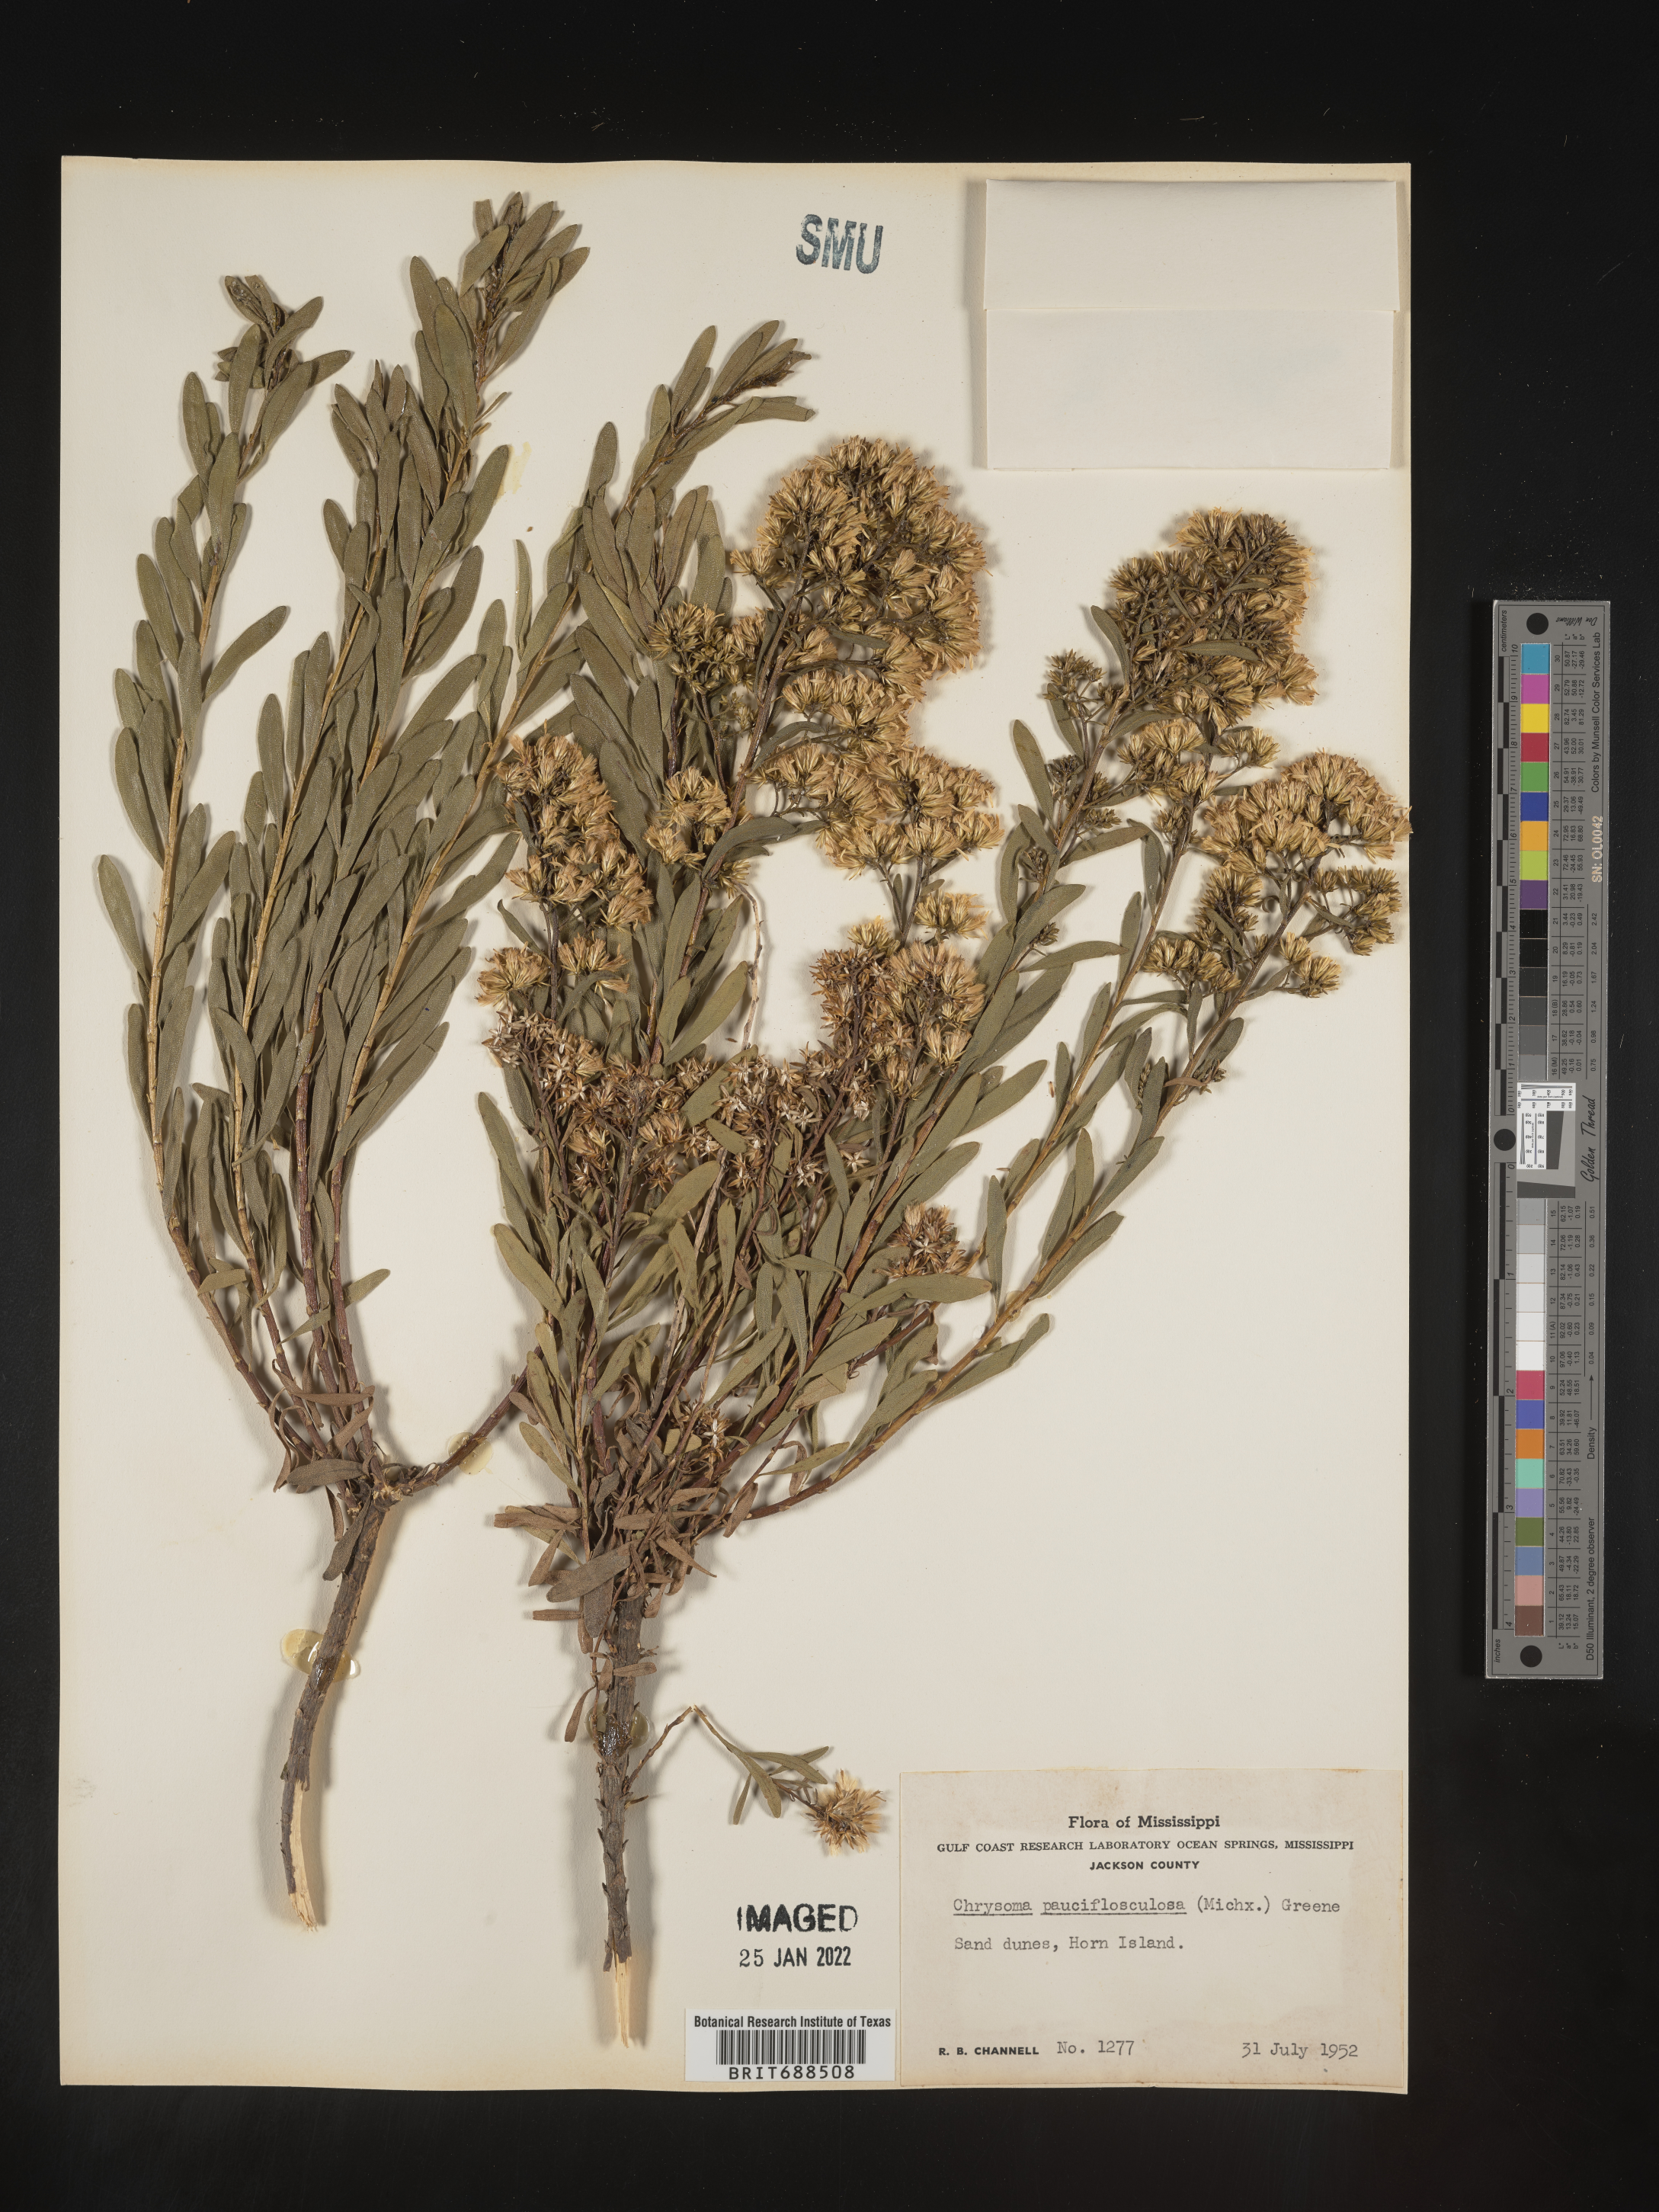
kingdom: Plantae
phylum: Tracheophyta
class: Magnoliopsida
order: Asterales
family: Asteraceae
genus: Chrysoma
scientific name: Chrysoma pauciflosculosa
